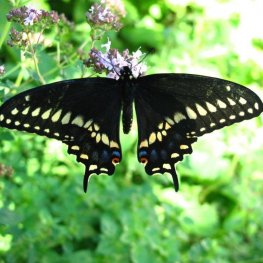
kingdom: Animalia
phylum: Arthropoda
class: Insecta
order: Lepidoptera
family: Papilionidae
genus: Papilio
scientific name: Papilio polyxenes
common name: Black Swallowtail
